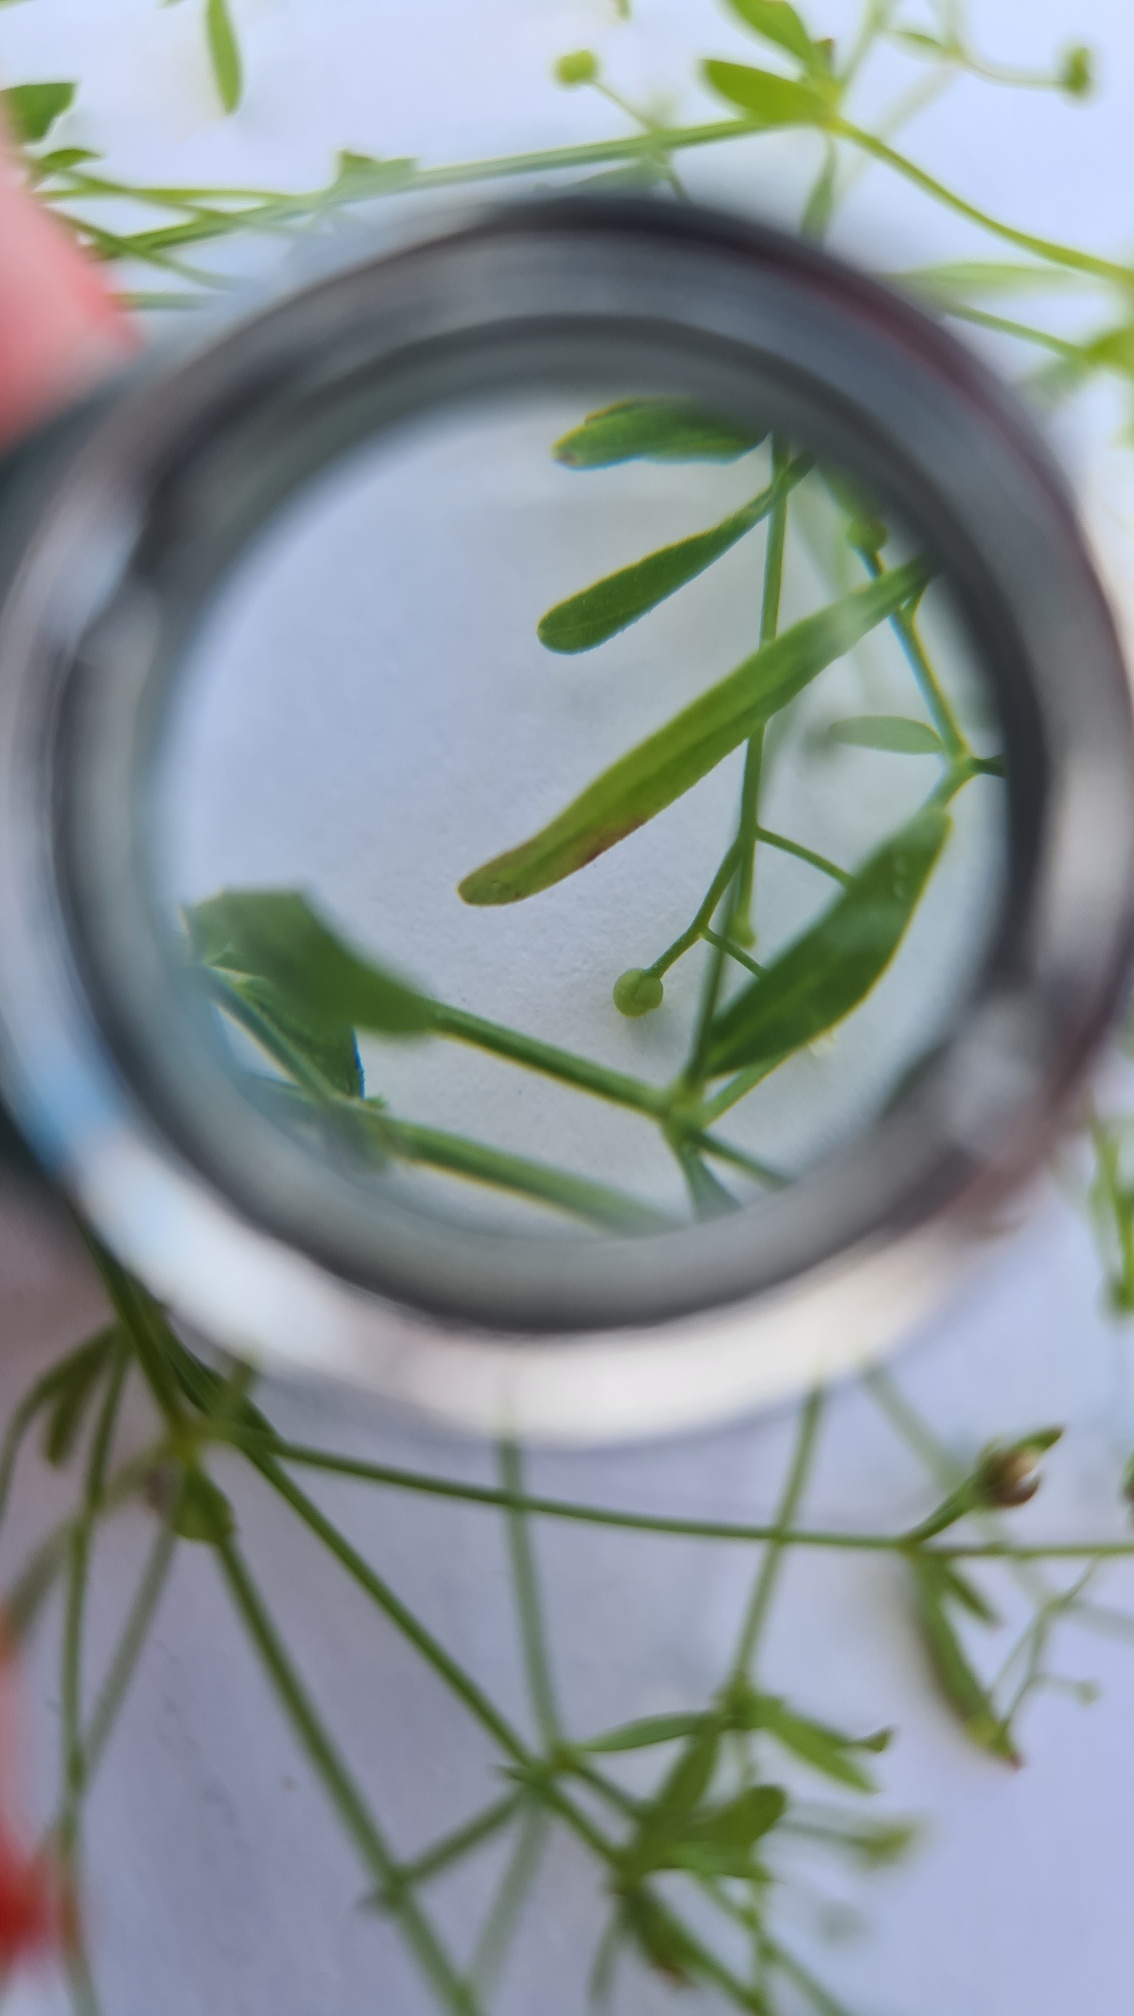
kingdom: Plantae
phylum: Tracheophyta
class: Magnoliopsida
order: Gentianales
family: Rubiaceae
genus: Galium
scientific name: Galium palustre
